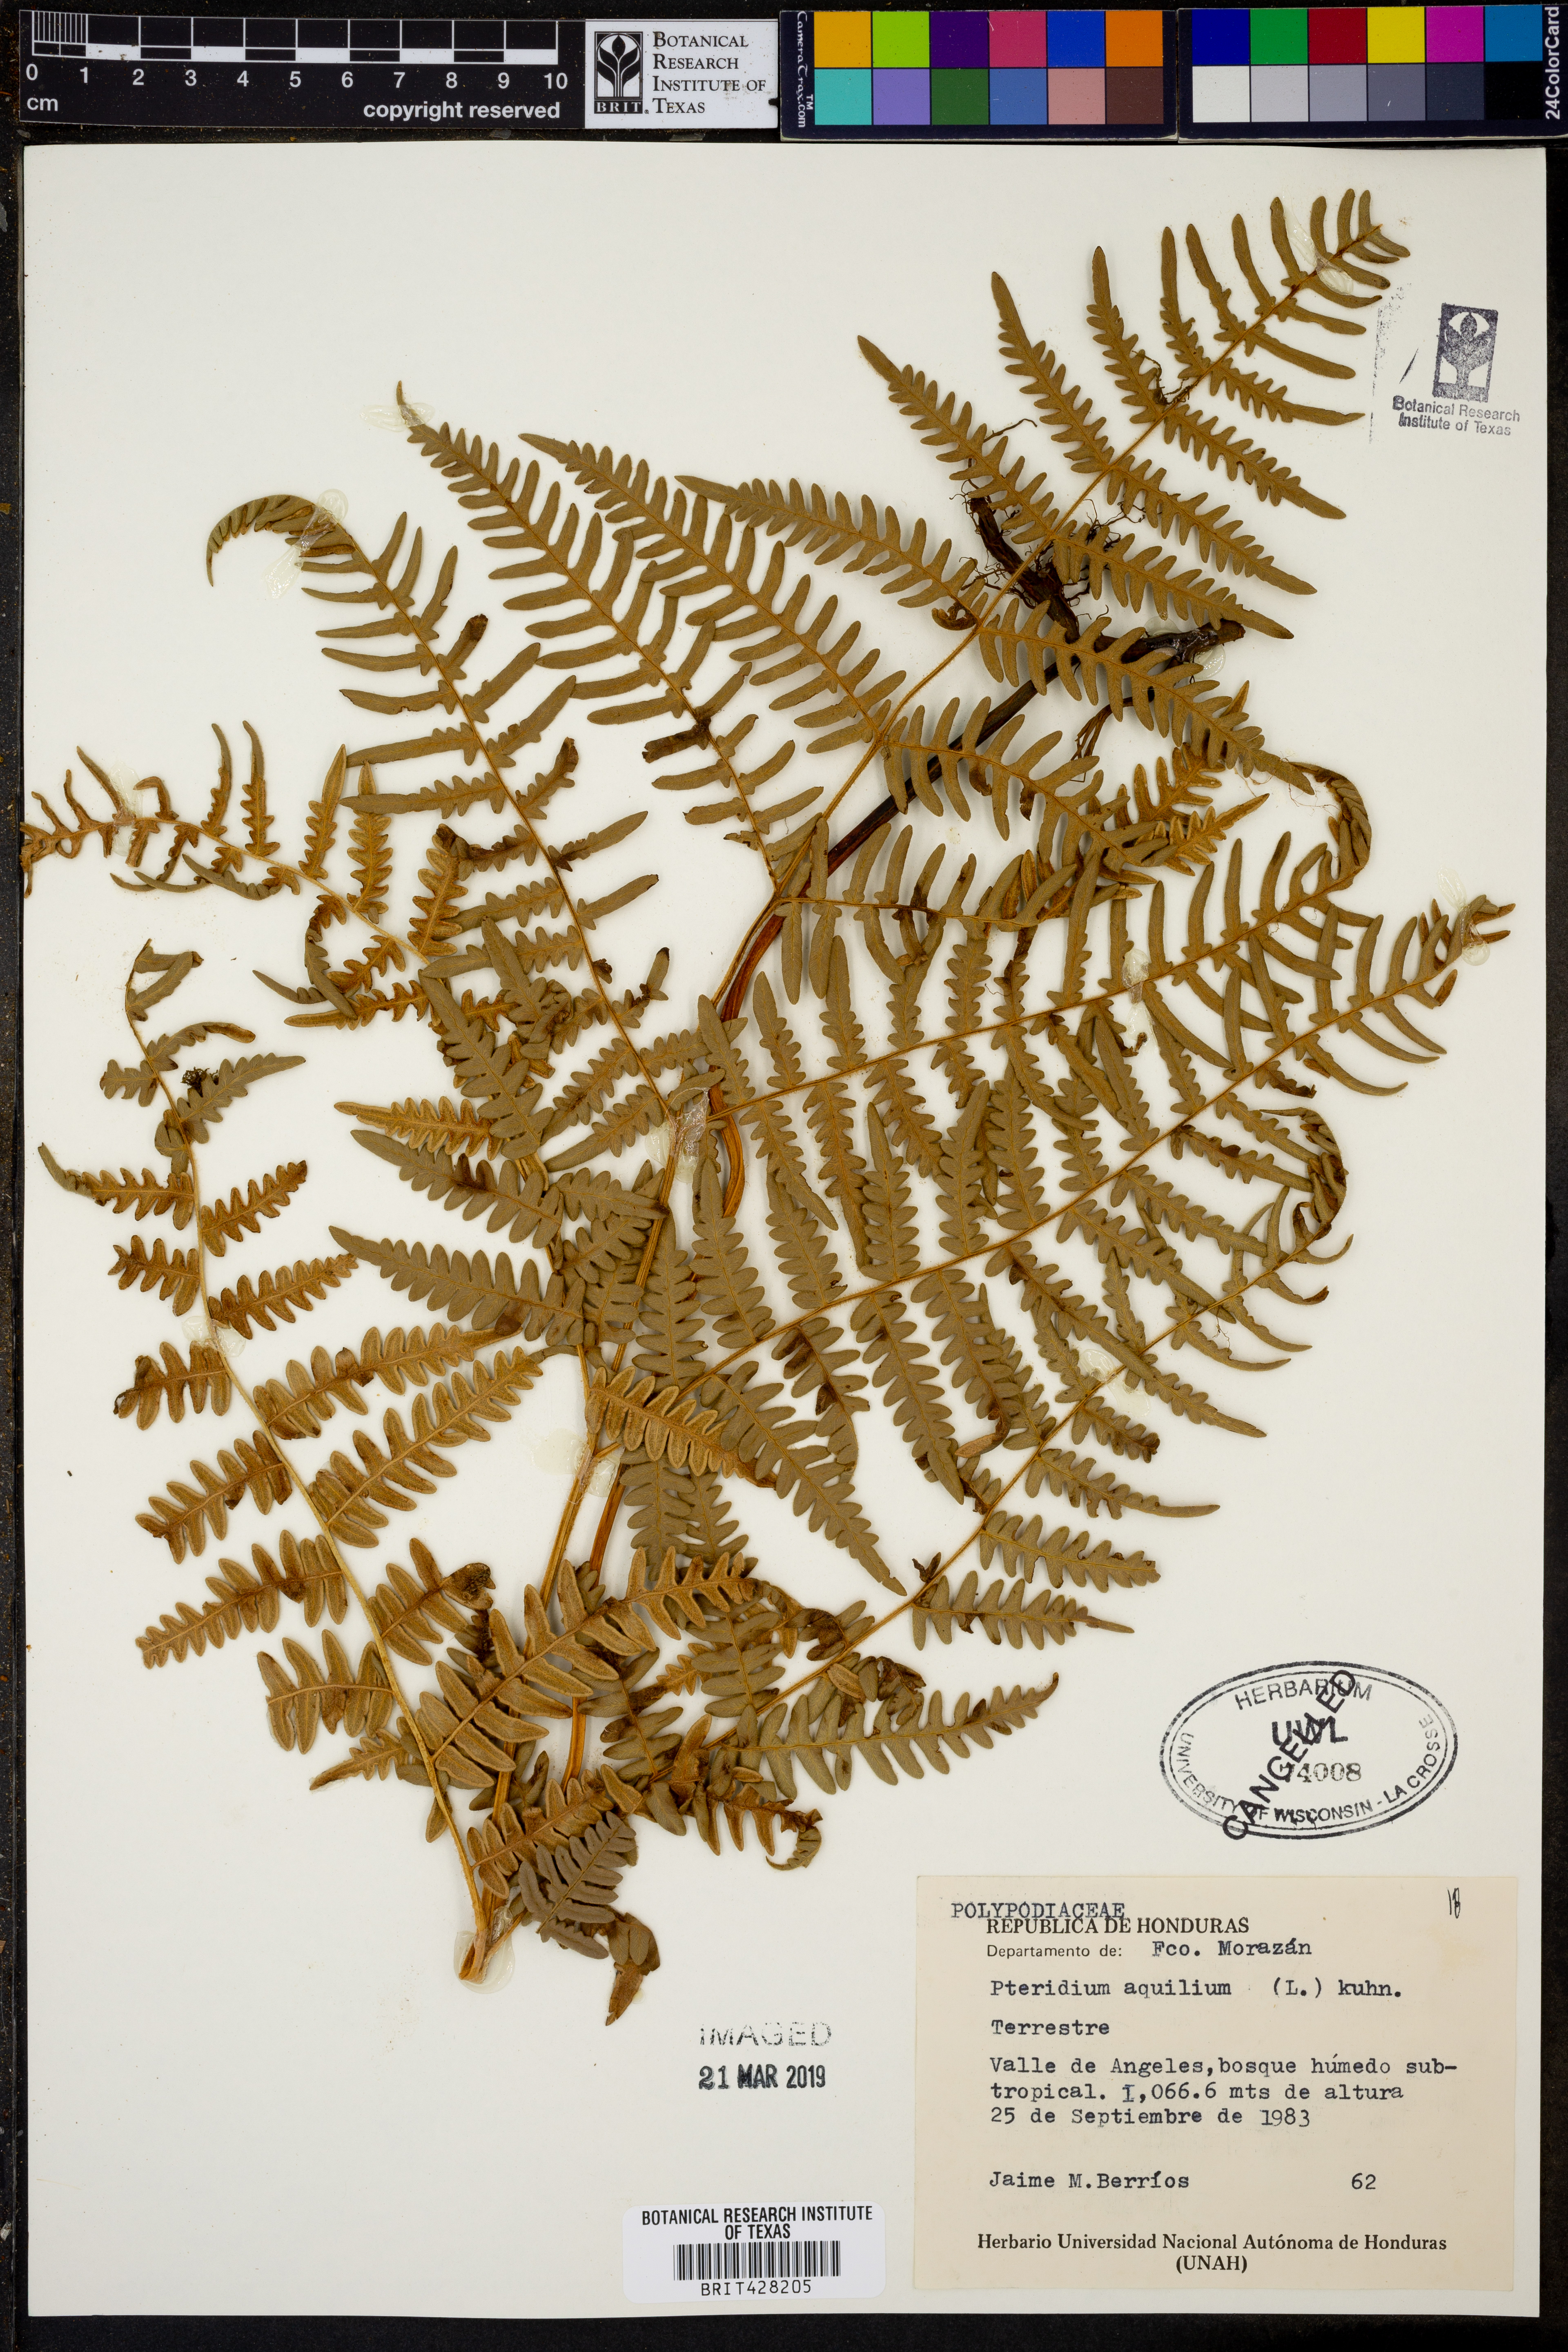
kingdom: Plantae
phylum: Tracheophyta
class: Polypodiopsida
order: Polypodiales
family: Dennstaedtiaceae
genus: Pteridium
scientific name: Pteridium aquilinum
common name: Bracken
